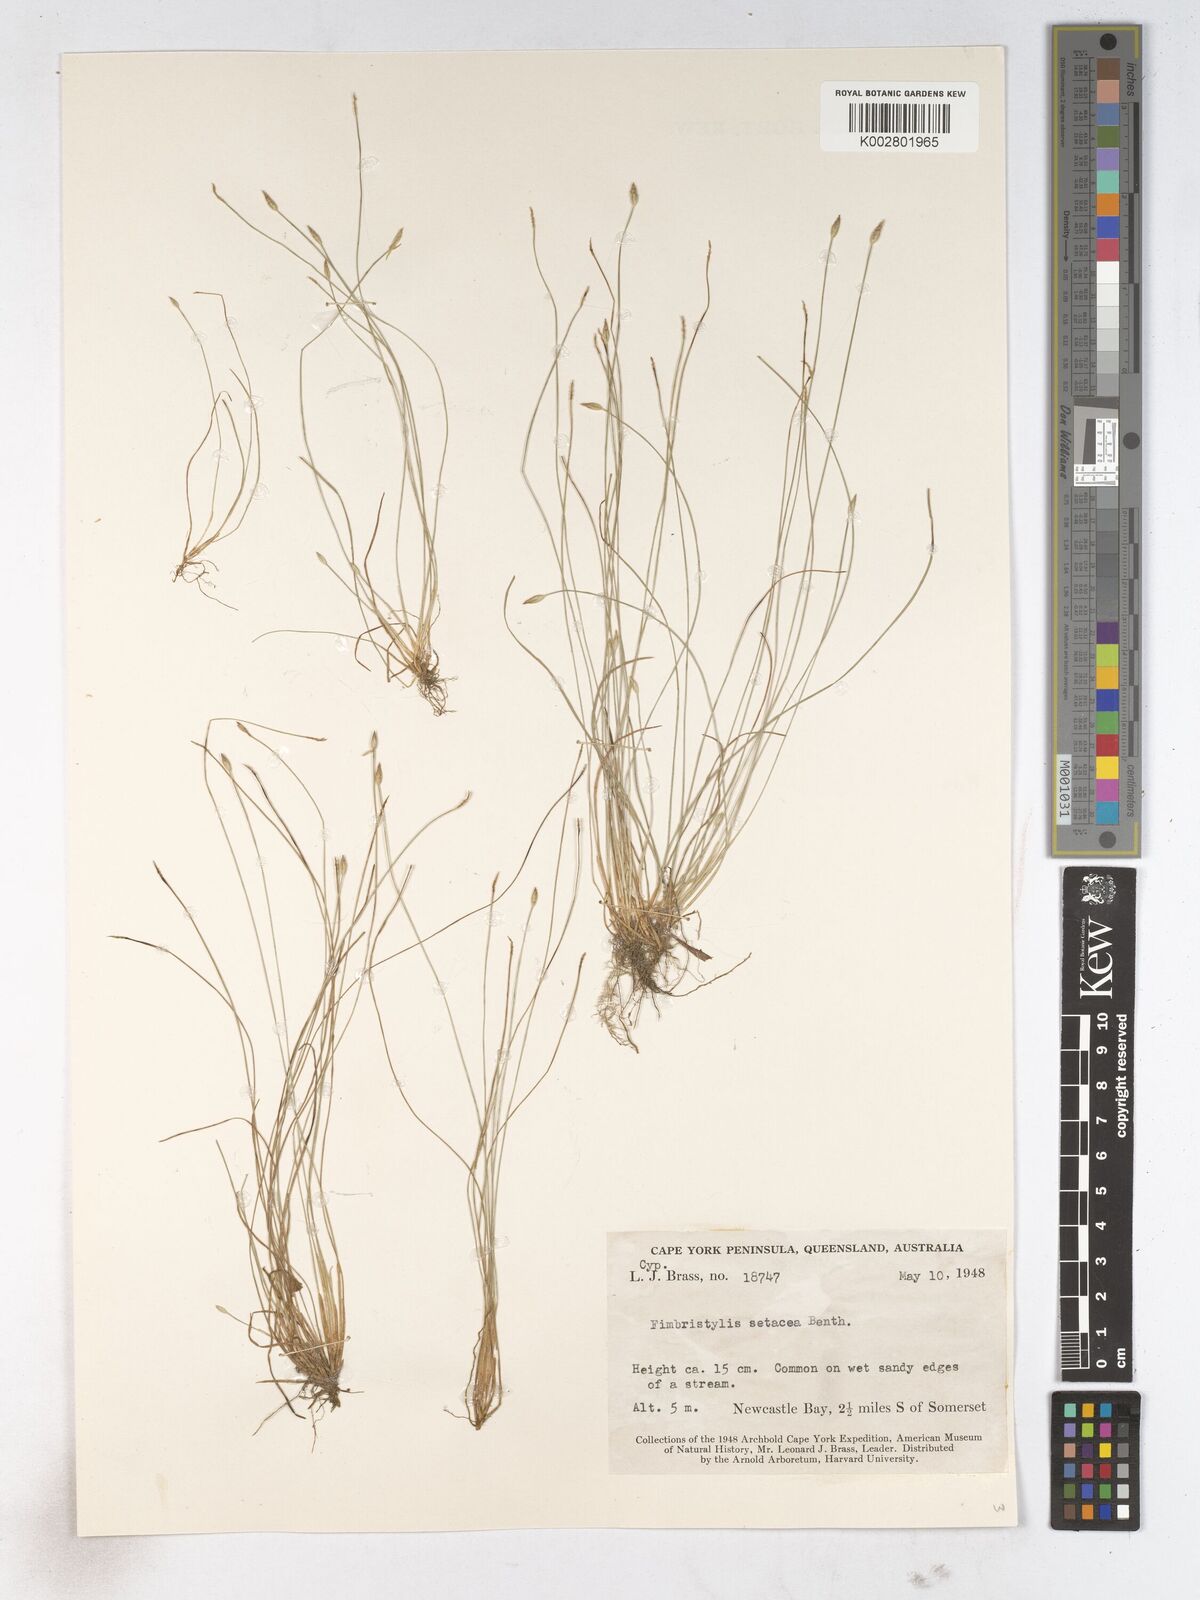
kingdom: Plantae
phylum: Tracheophyta
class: Liliopsida
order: Poales
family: Cyperaceae
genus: Fimbristylis
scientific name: Fimbristylis acicularis
